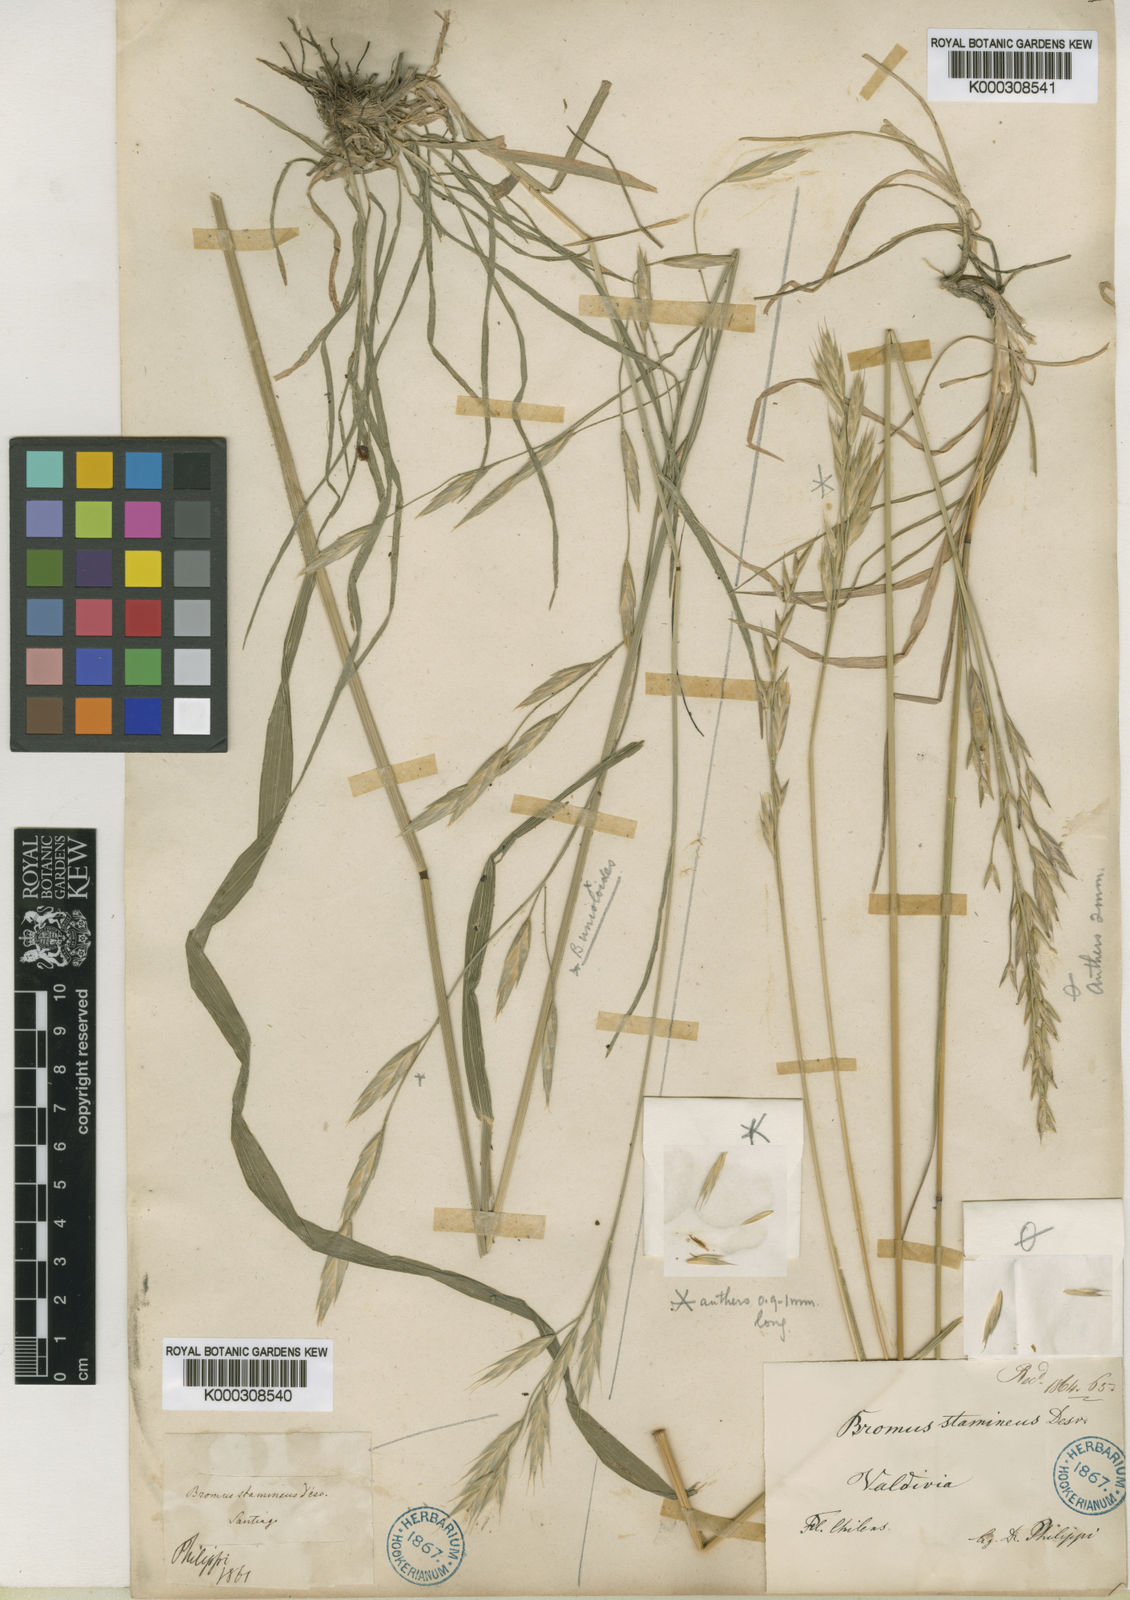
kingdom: Plantae
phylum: Tracheophyta
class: Liliopsida
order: Poales
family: Poaceae
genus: Bromus
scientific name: Bromus cebadilla
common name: Southern brome
